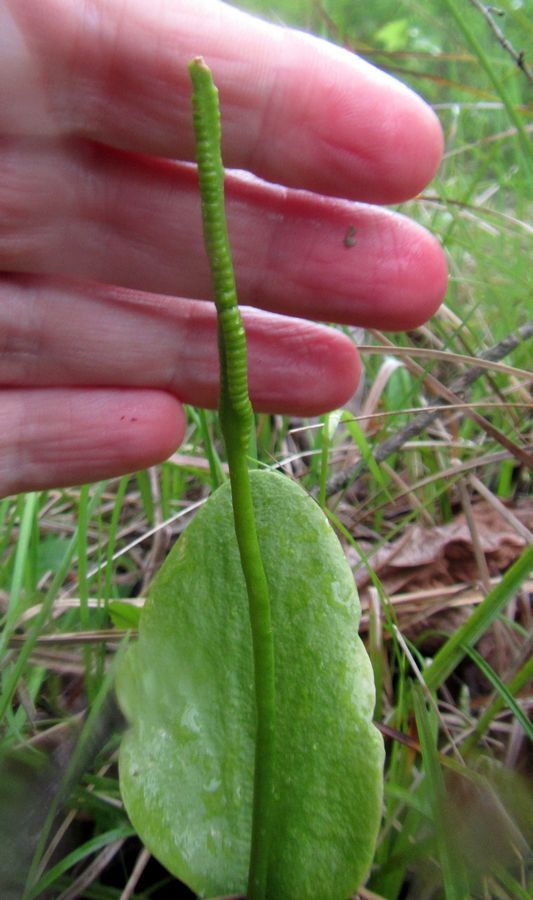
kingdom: Plantae
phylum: Tracheophyta
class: Polypodiopsida
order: Ophioglossales
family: Ophioglossaceae
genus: Ophioglossum
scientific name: Ophioglossum vulgatum
